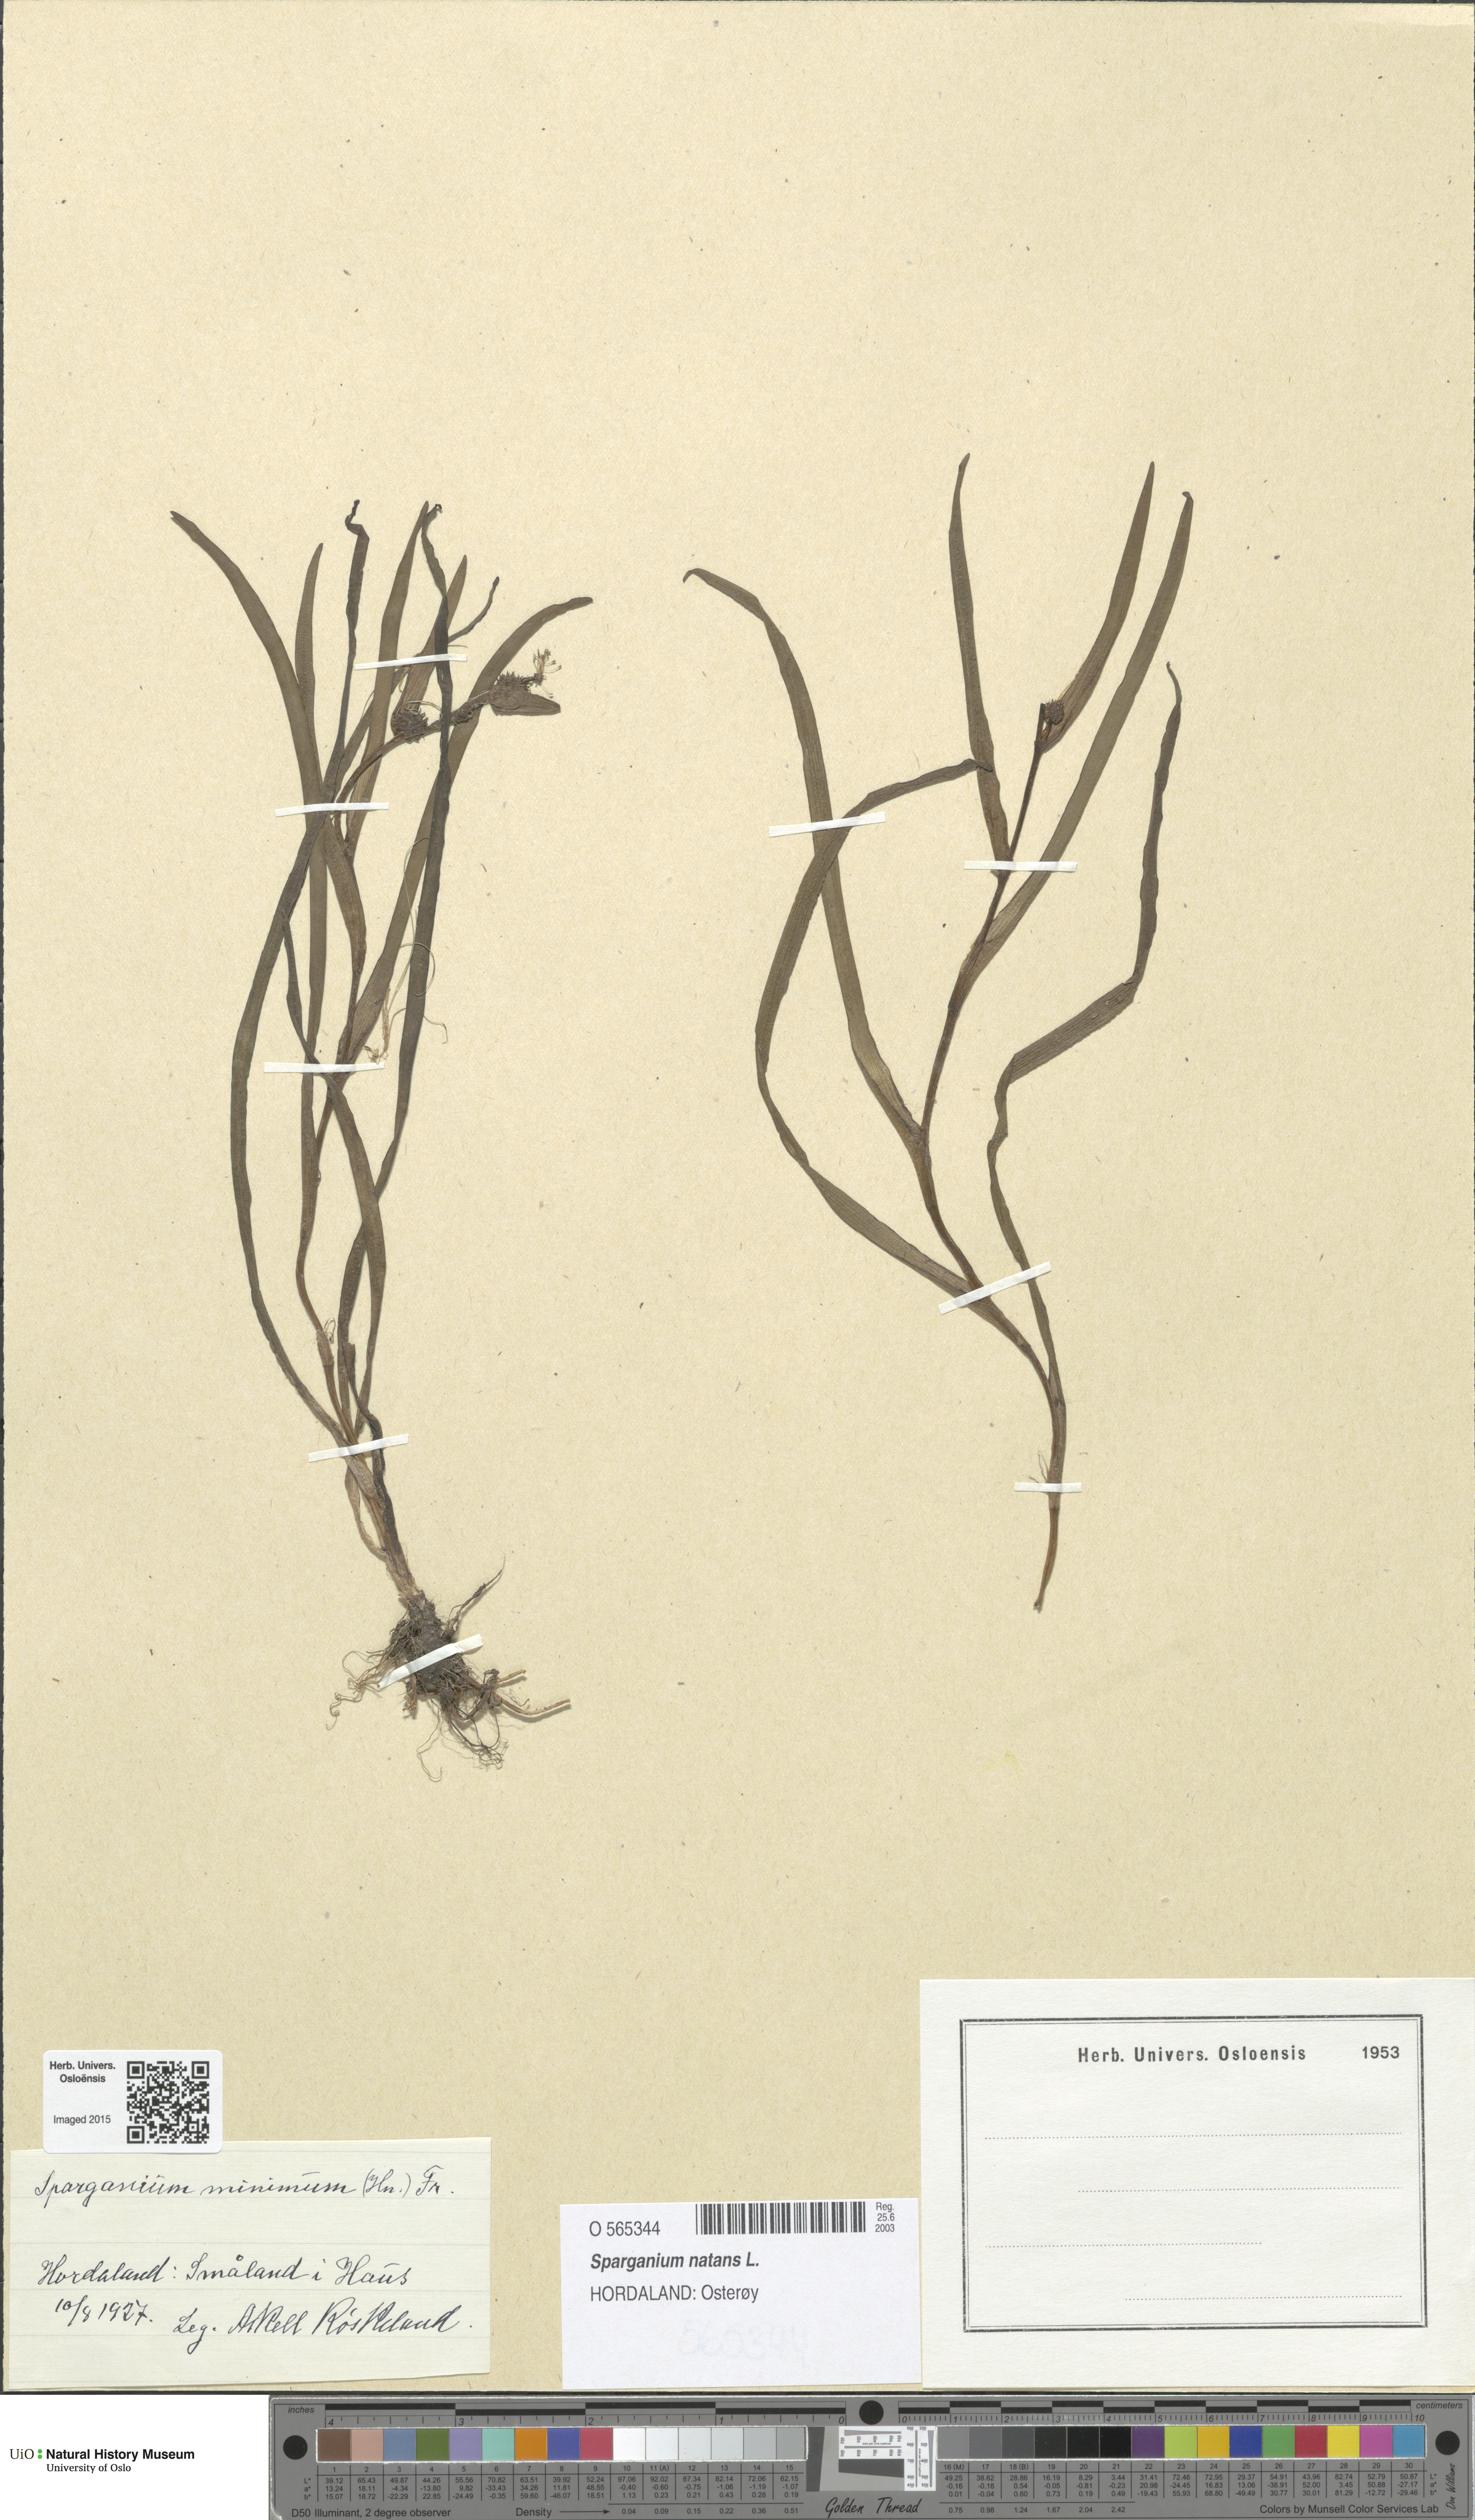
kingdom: Plantae
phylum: Tracheophyta
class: Liliopsida
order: Poales
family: Typhaceae
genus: Sparganium
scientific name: Sparganium natans
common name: Least bur-reed
